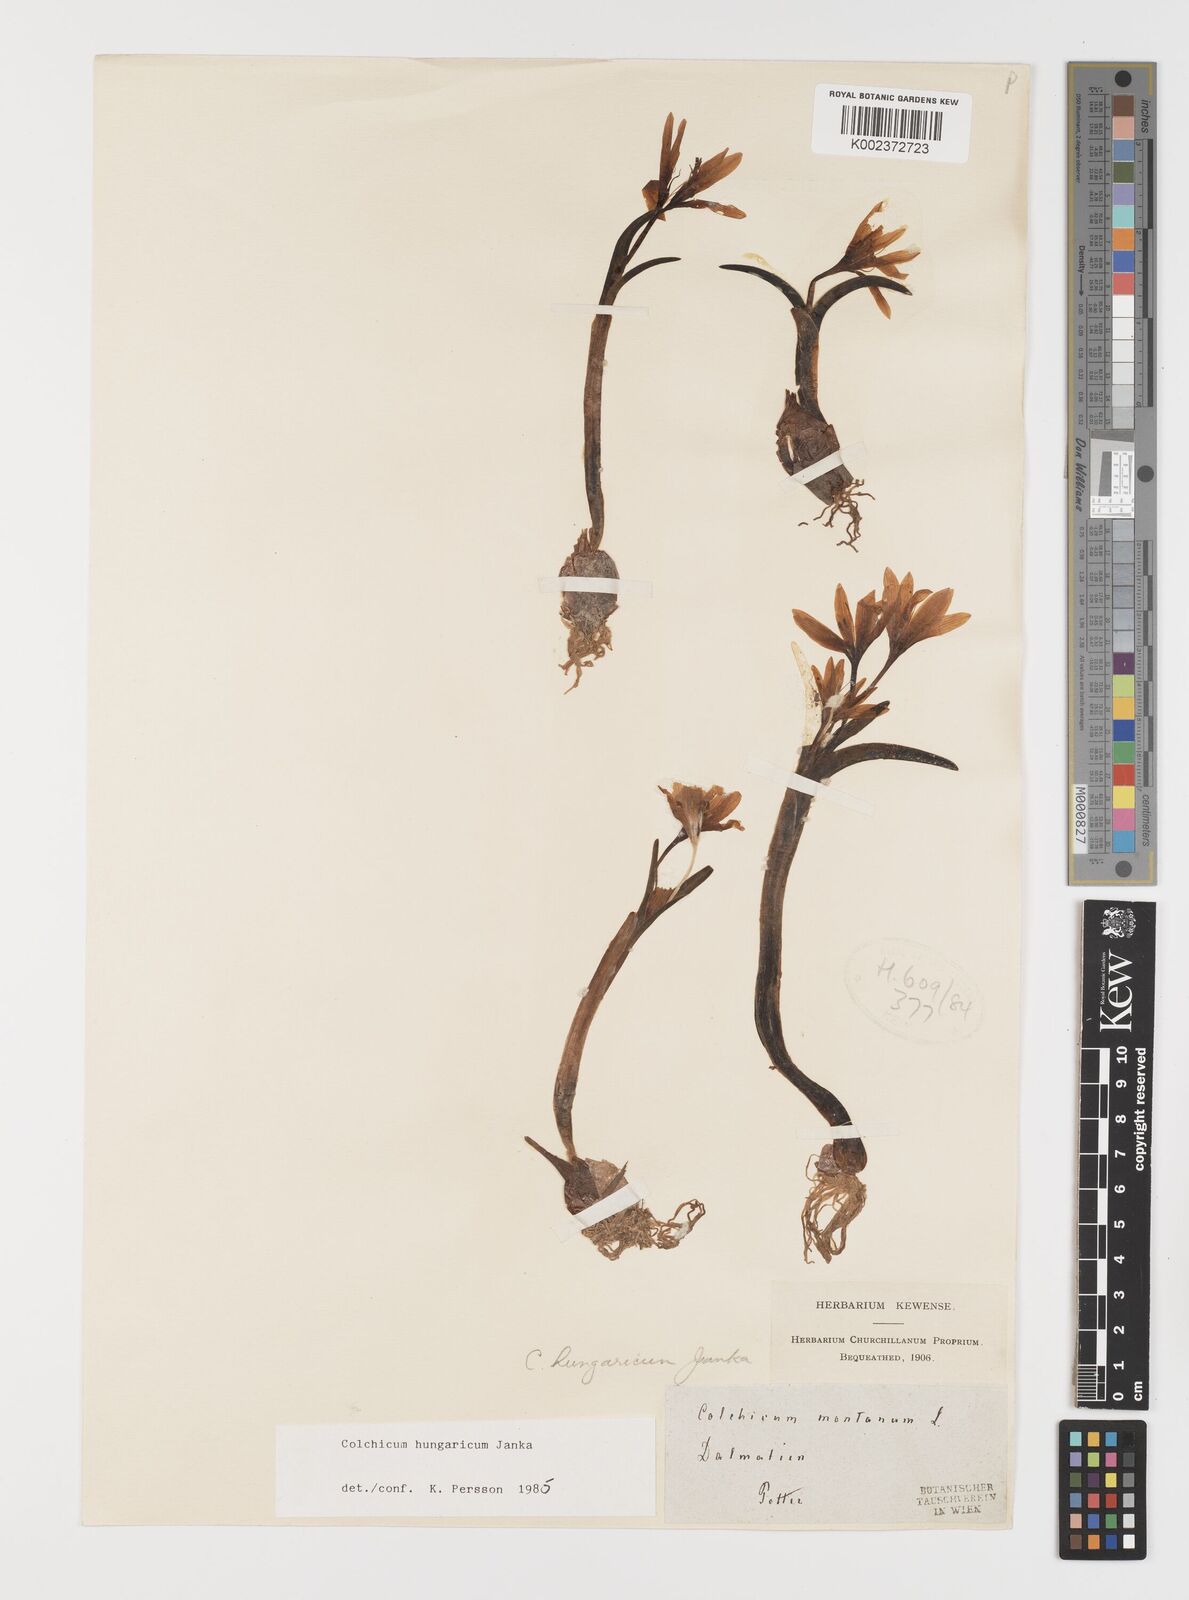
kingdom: Plantae
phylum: Tracheophyta
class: Liliopsida
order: Liliales
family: Colchicaceae
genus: Colchicum
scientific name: Colchicum hungaricum
